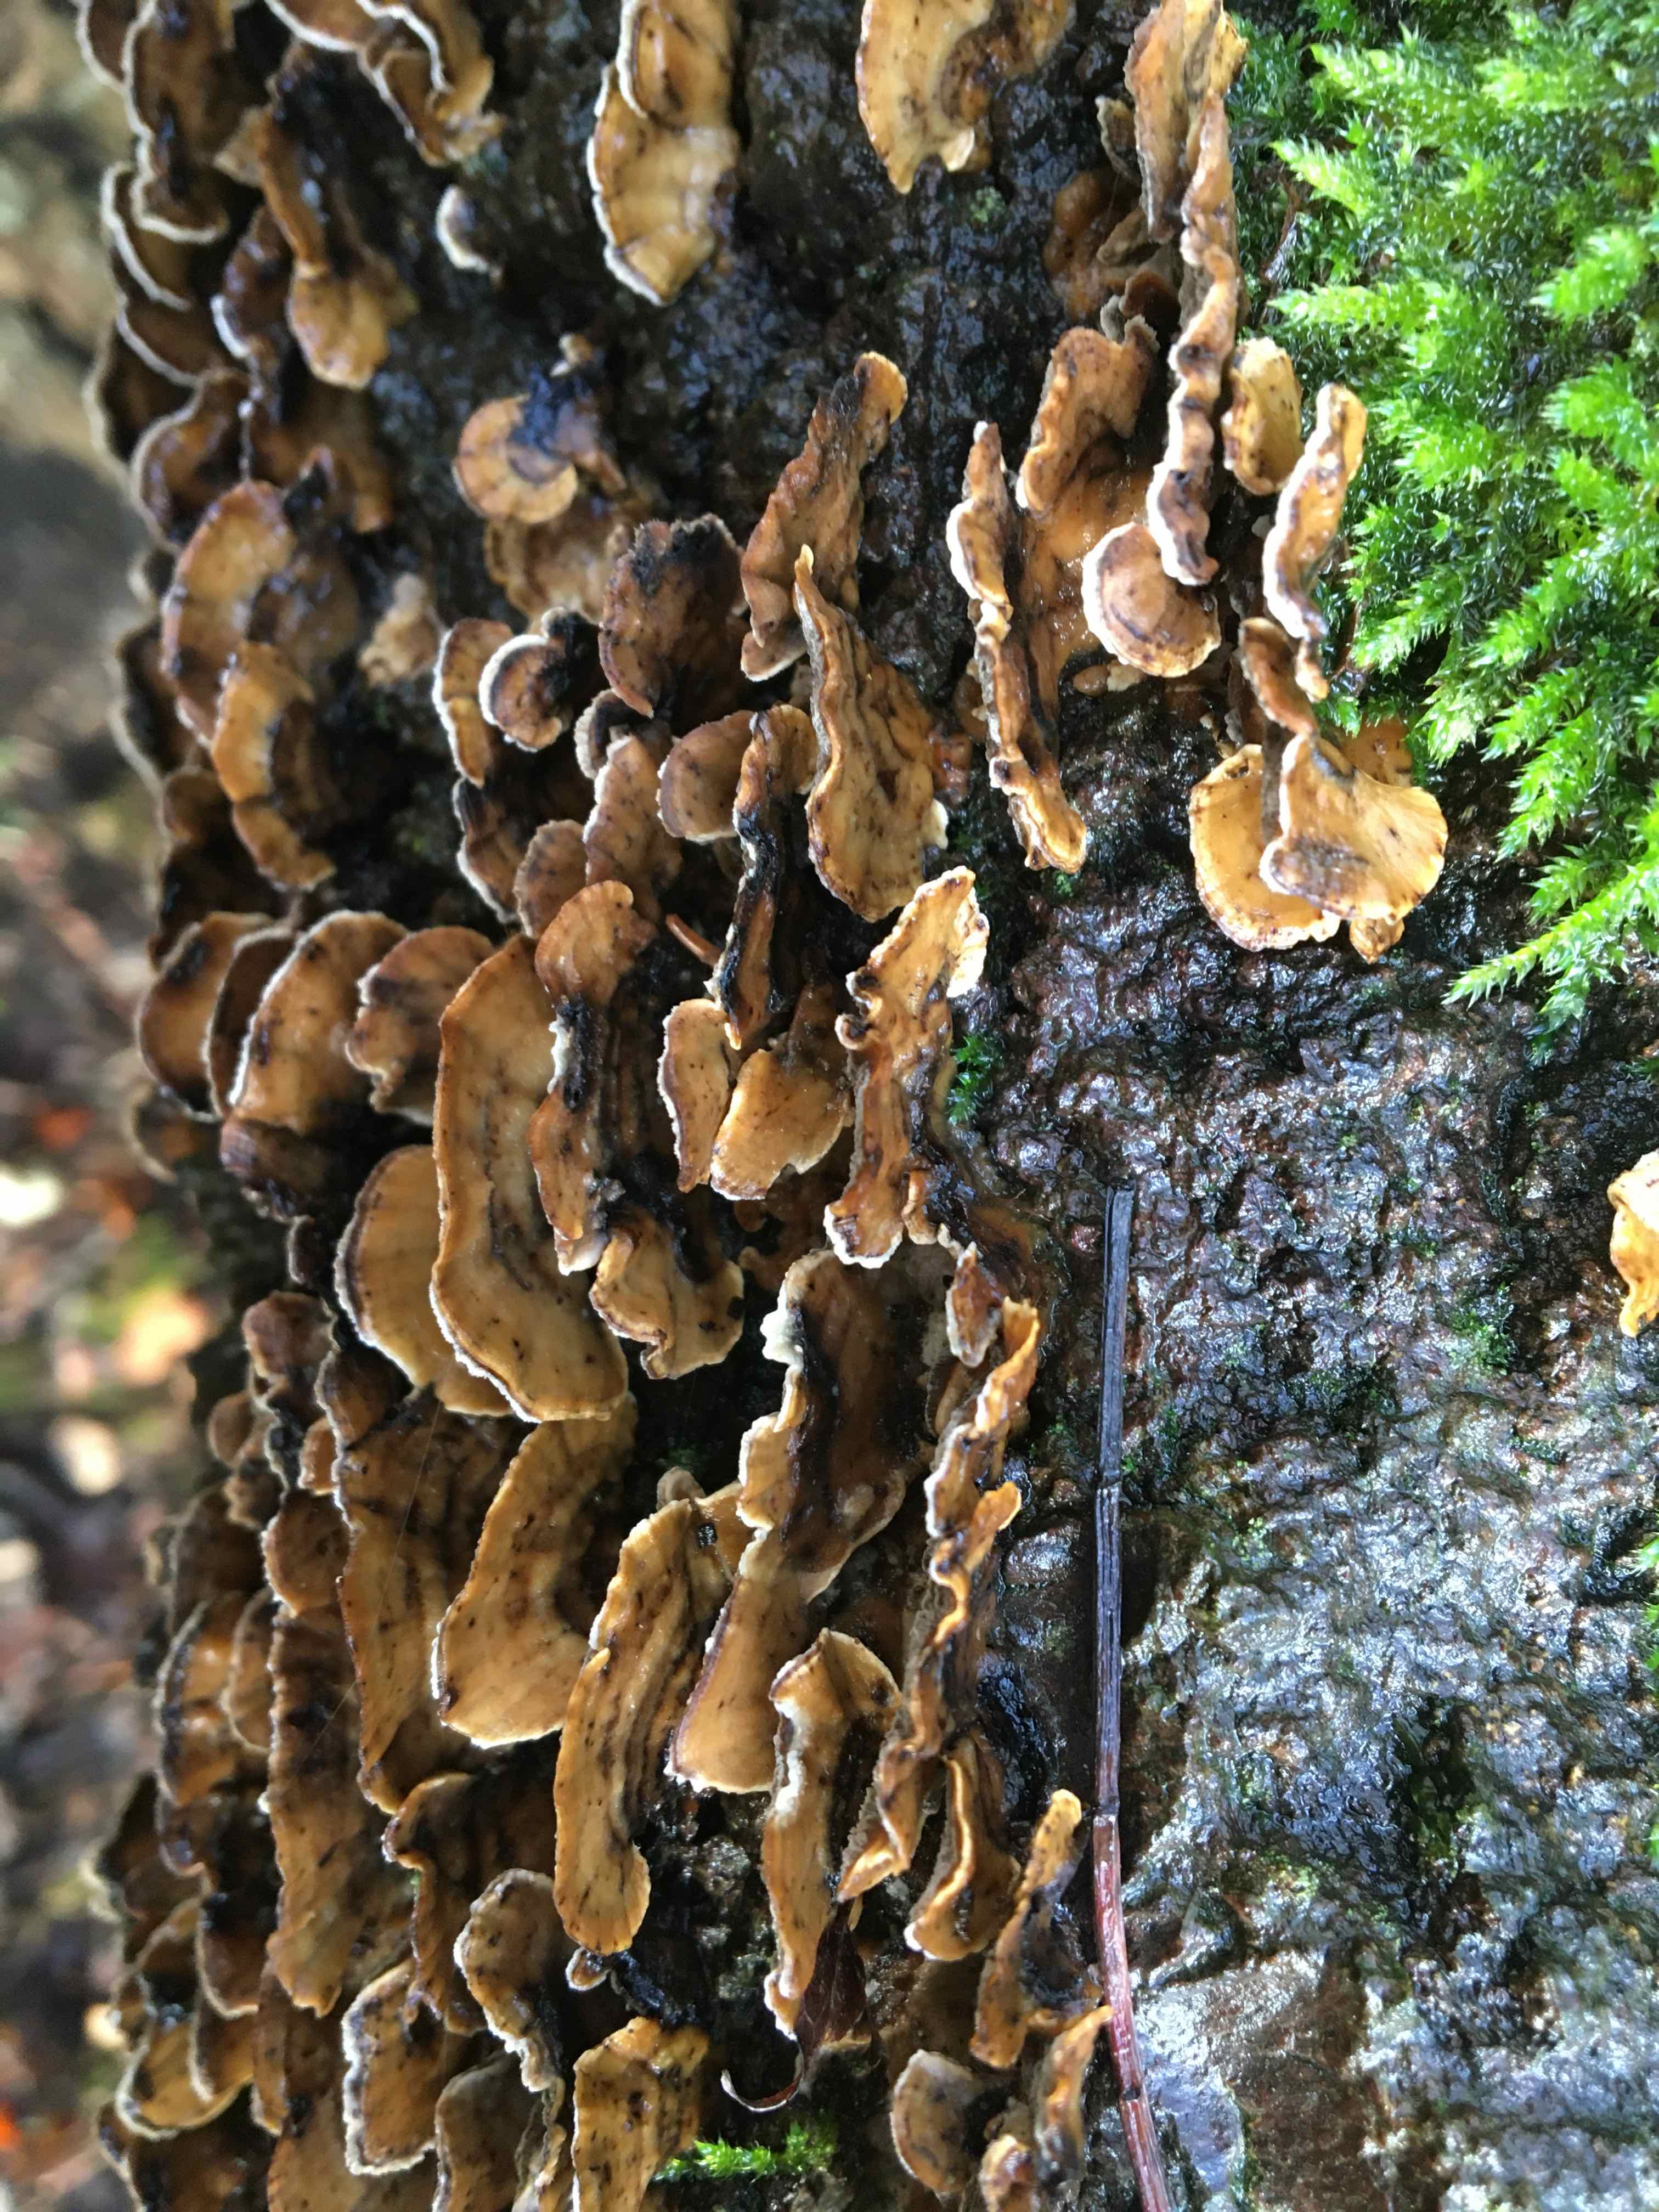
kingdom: Fungi
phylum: Basidiomycota
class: Agaricomycetes
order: Polyporales
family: Phanerochaetaceae
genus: Bjerkandera
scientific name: Bjerkandera adusta
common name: sveden sodporesvamp
